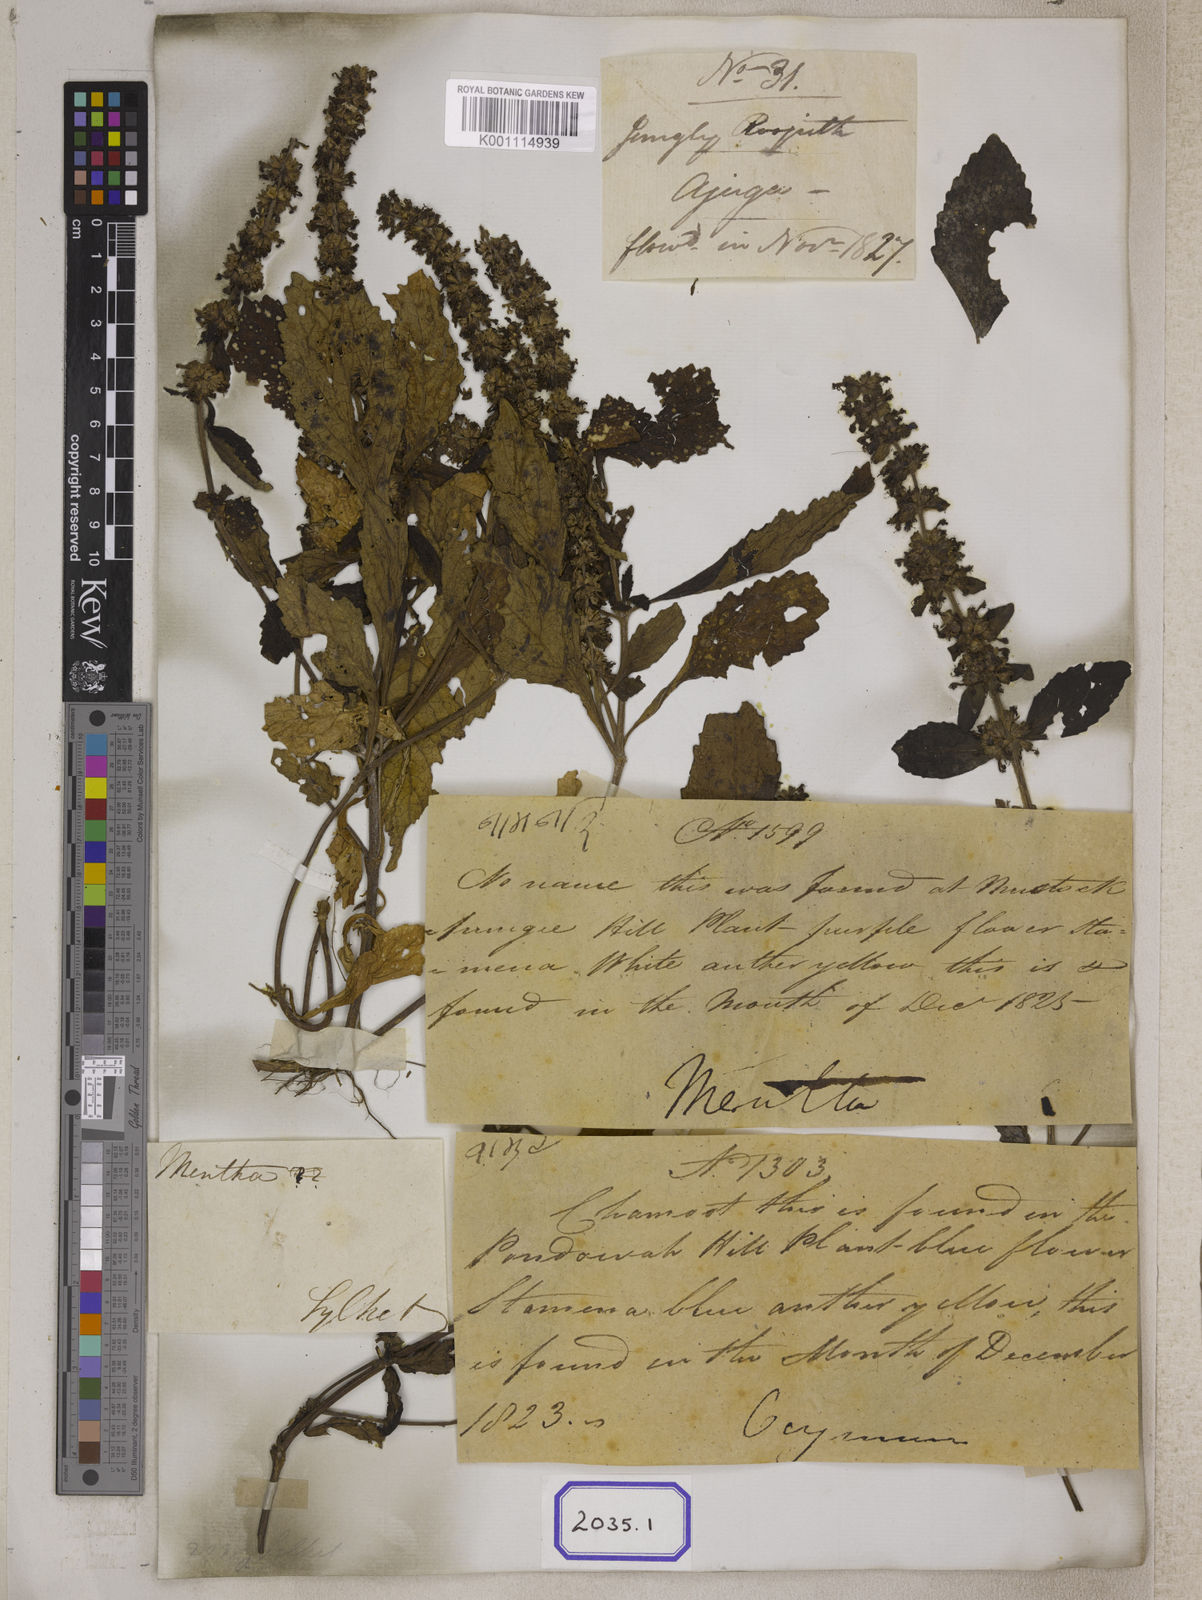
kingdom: Plantae
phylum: Tracheophyta
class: Magnoliopsida
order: Lamiales
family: Lamiaceae
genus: Ajuga
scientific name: Ajuga
